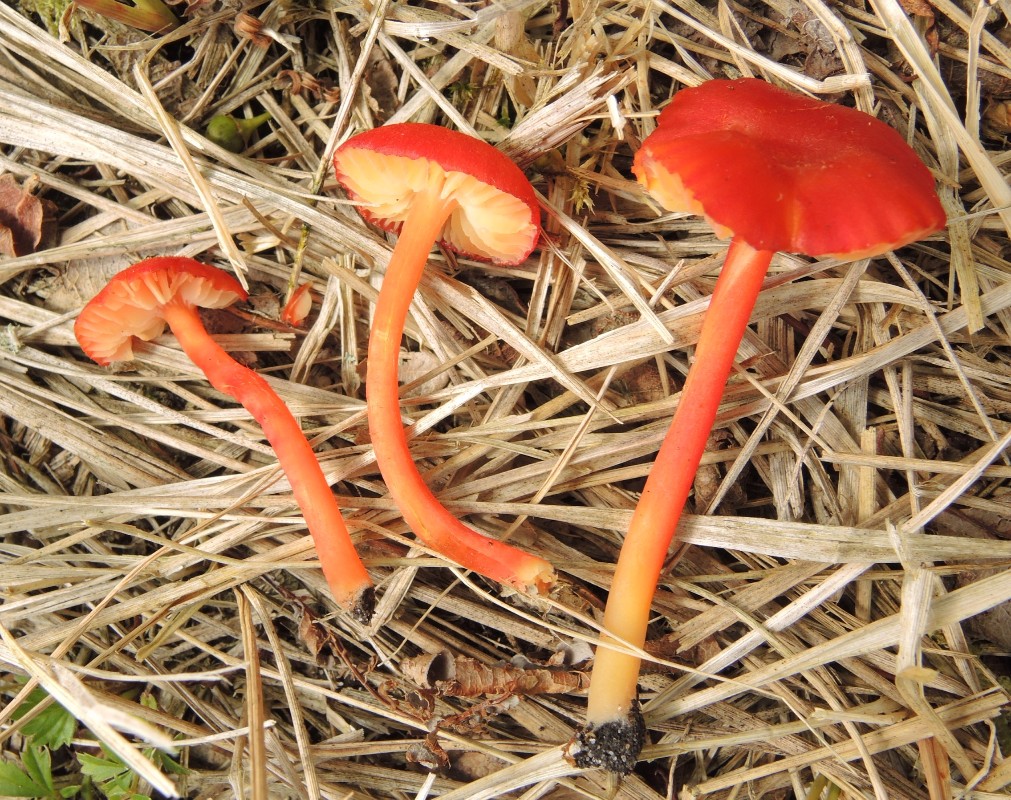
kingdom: Fungi
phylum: Basidiomycota
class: Agaricomycetes
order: Agaricales
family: Hygrophoraceae
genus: Hygrocybe
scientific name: Hygrocybe helobia
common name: hvidløgs-vokshat
